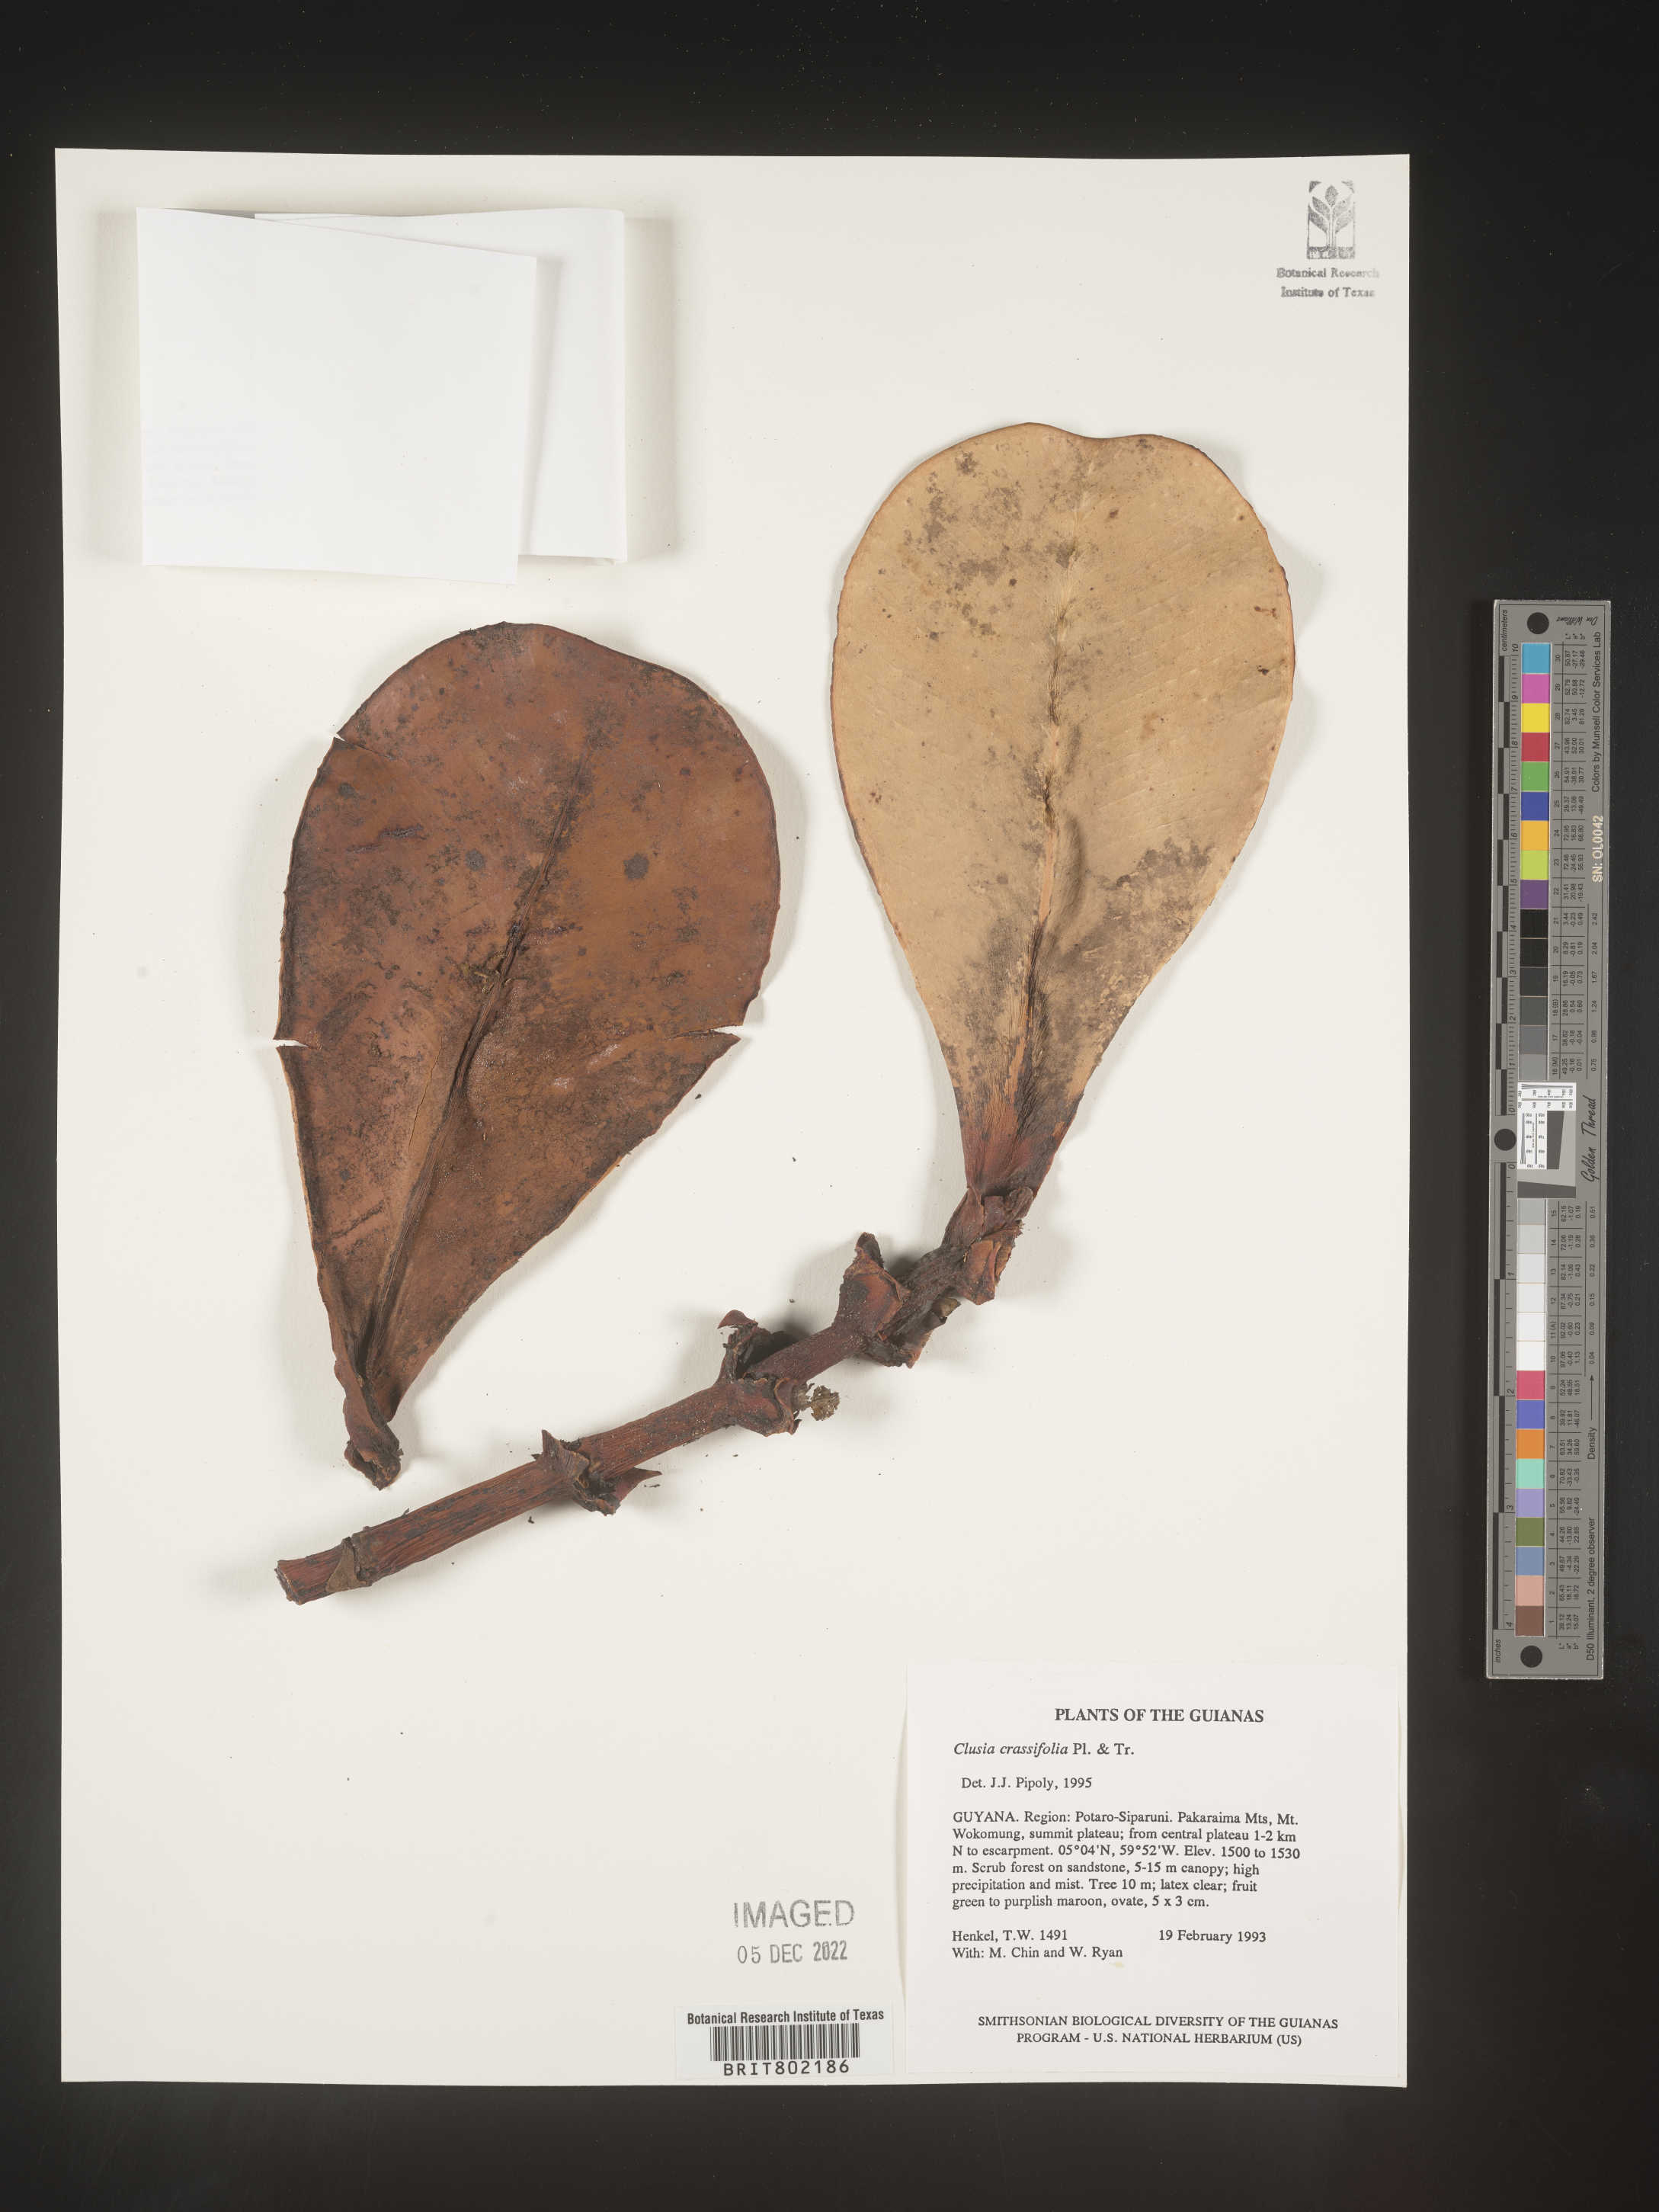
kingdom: Plantae
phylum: Tracheophyta
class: Magnoliopsida
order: Malpighiales
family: Clusiaceae
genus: Clusia
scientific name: Clusia crassifolia
